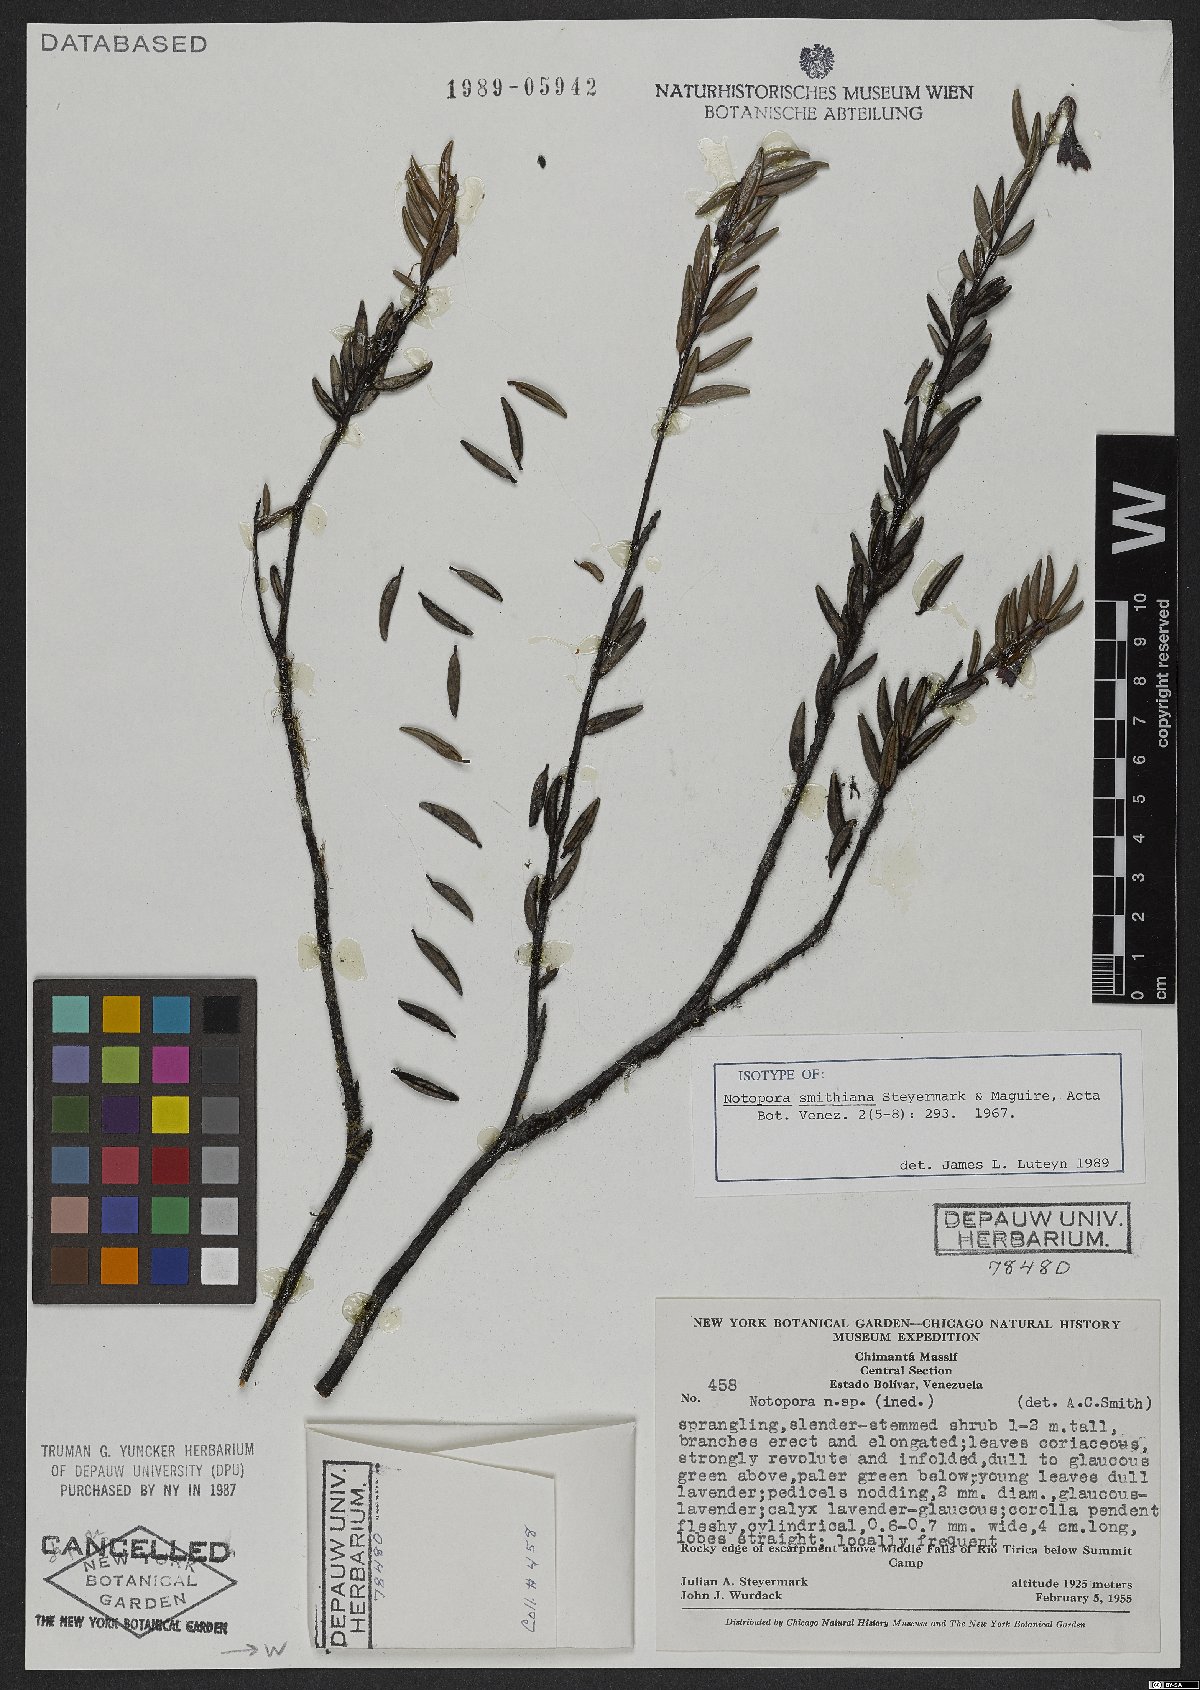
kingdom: Plantae
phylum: Tracheophyta
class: Magnoliopsida
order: Ericales
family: Ericaceae
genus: Notopora
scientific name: Notopora smithiana
